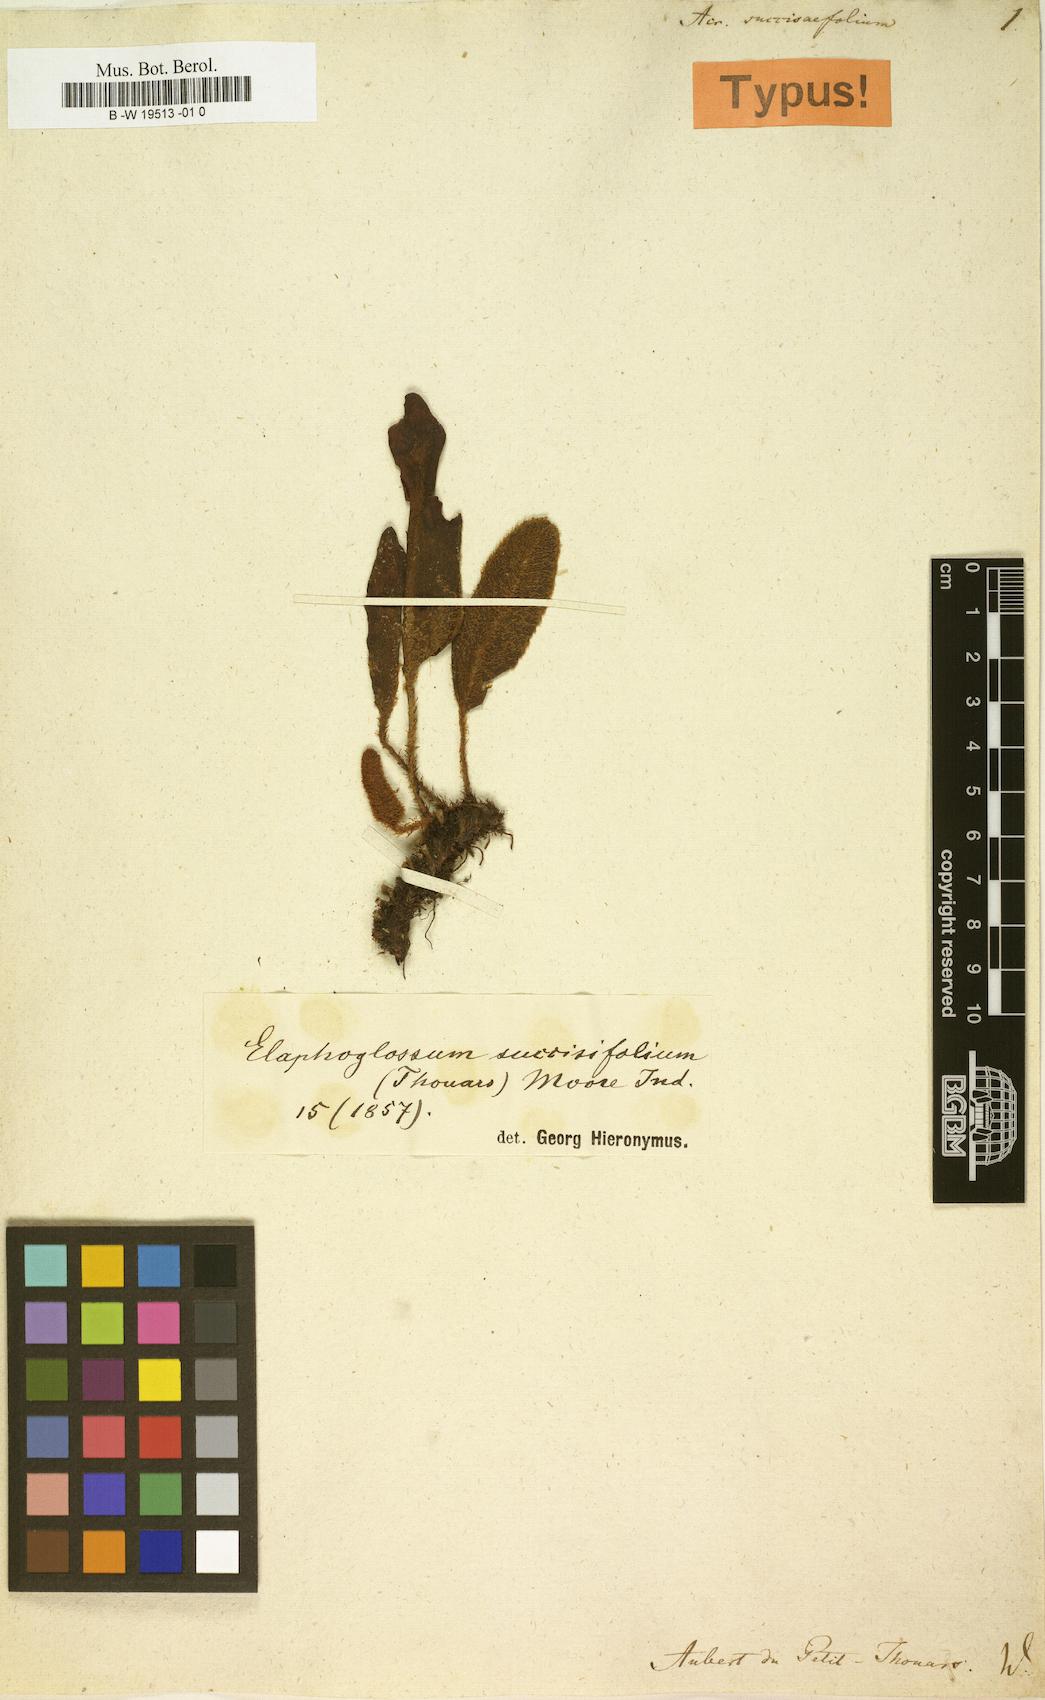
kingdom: Plantae
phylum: Tracheophyta
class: Polypodiopsida
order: Polypodiales
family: Dryopteridaceae
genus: Elaphoglossum
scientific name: Elaphoglossum succisifolium
